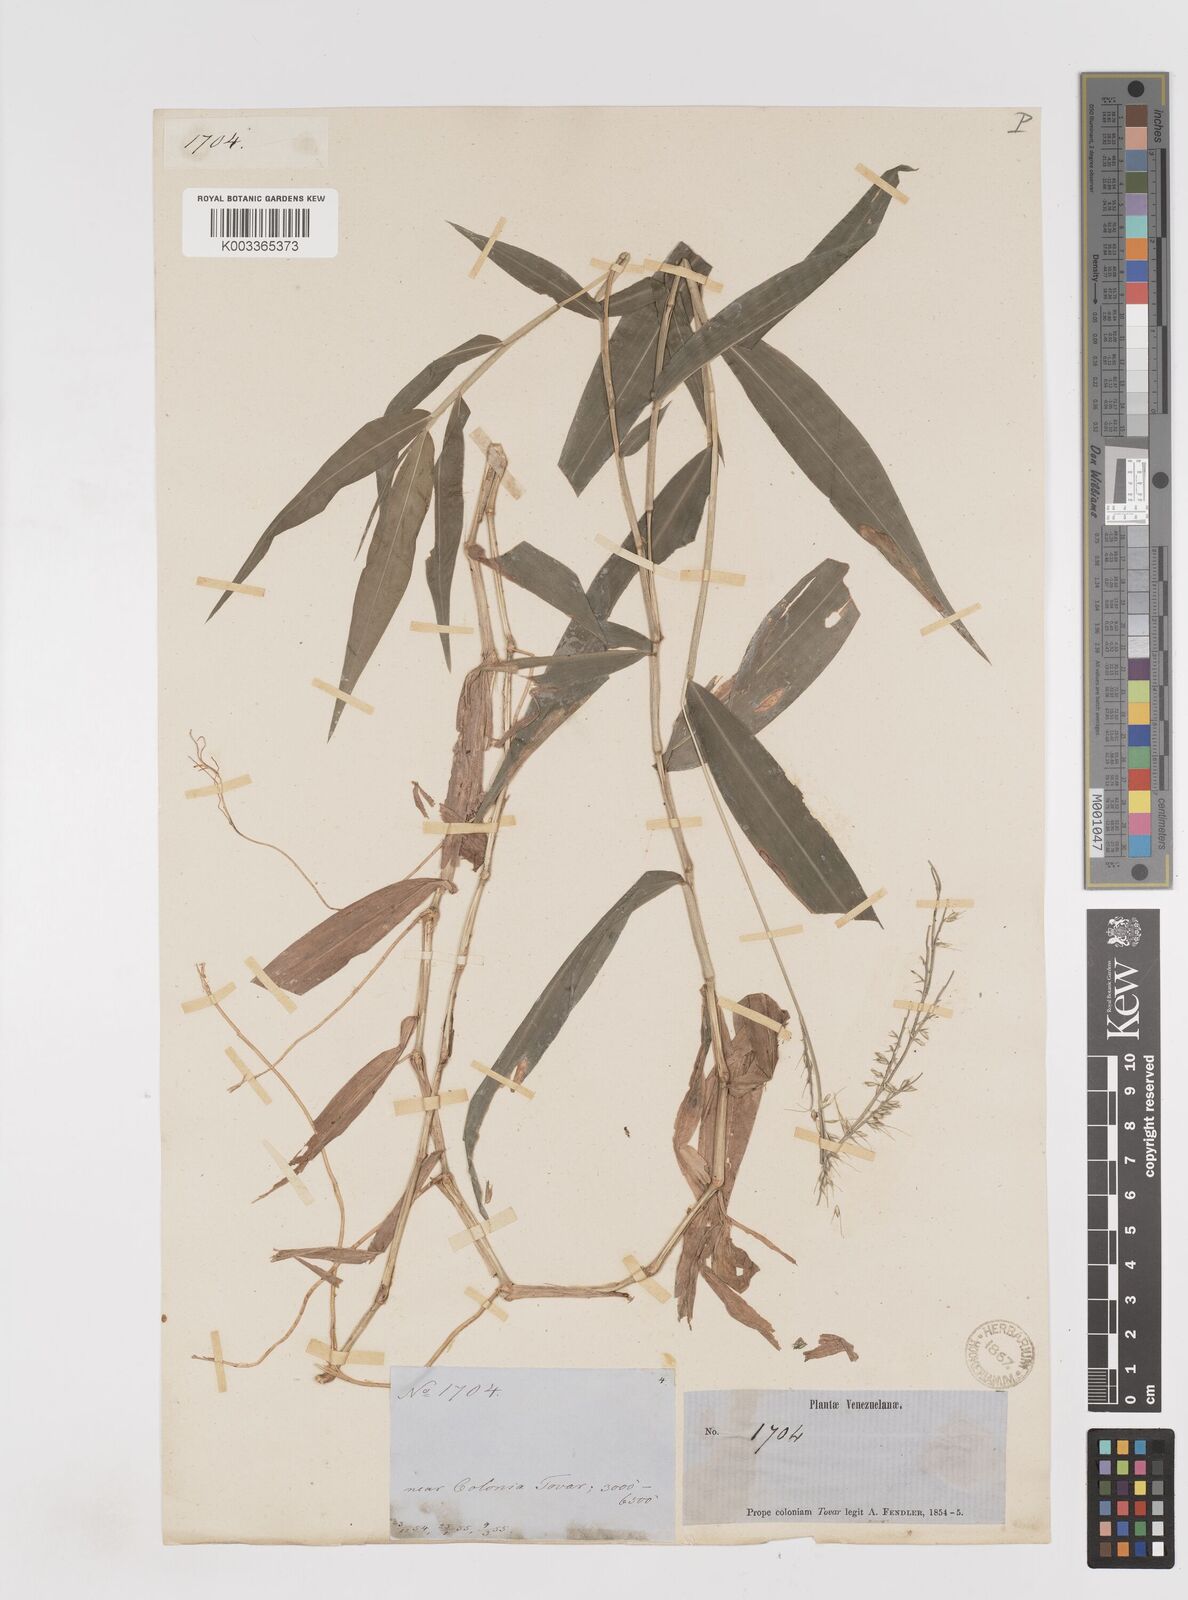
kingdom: Plantae
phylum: Tracheophyta
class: Liliopsida
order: Poales
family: Poaceae
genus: Oplismenus
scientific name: Oplismenus compositus
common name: Running mountain grass
